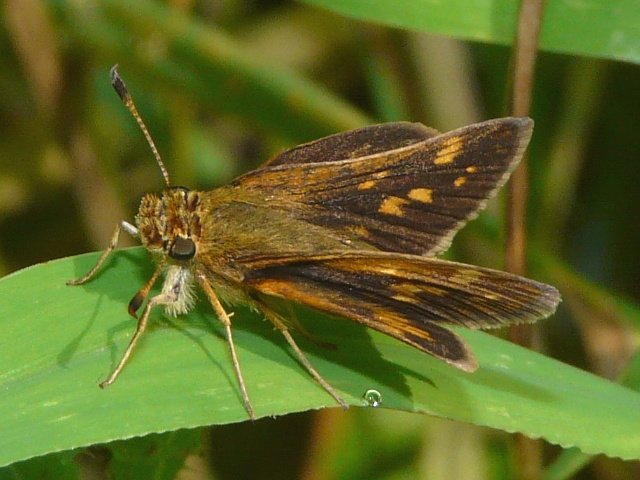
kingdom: Animalia
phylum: Arthropoda
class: Insecta
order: Lepidoptera
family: Hesperiidae
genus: Polites
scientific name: Polites coras
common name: Peck's Skipper
